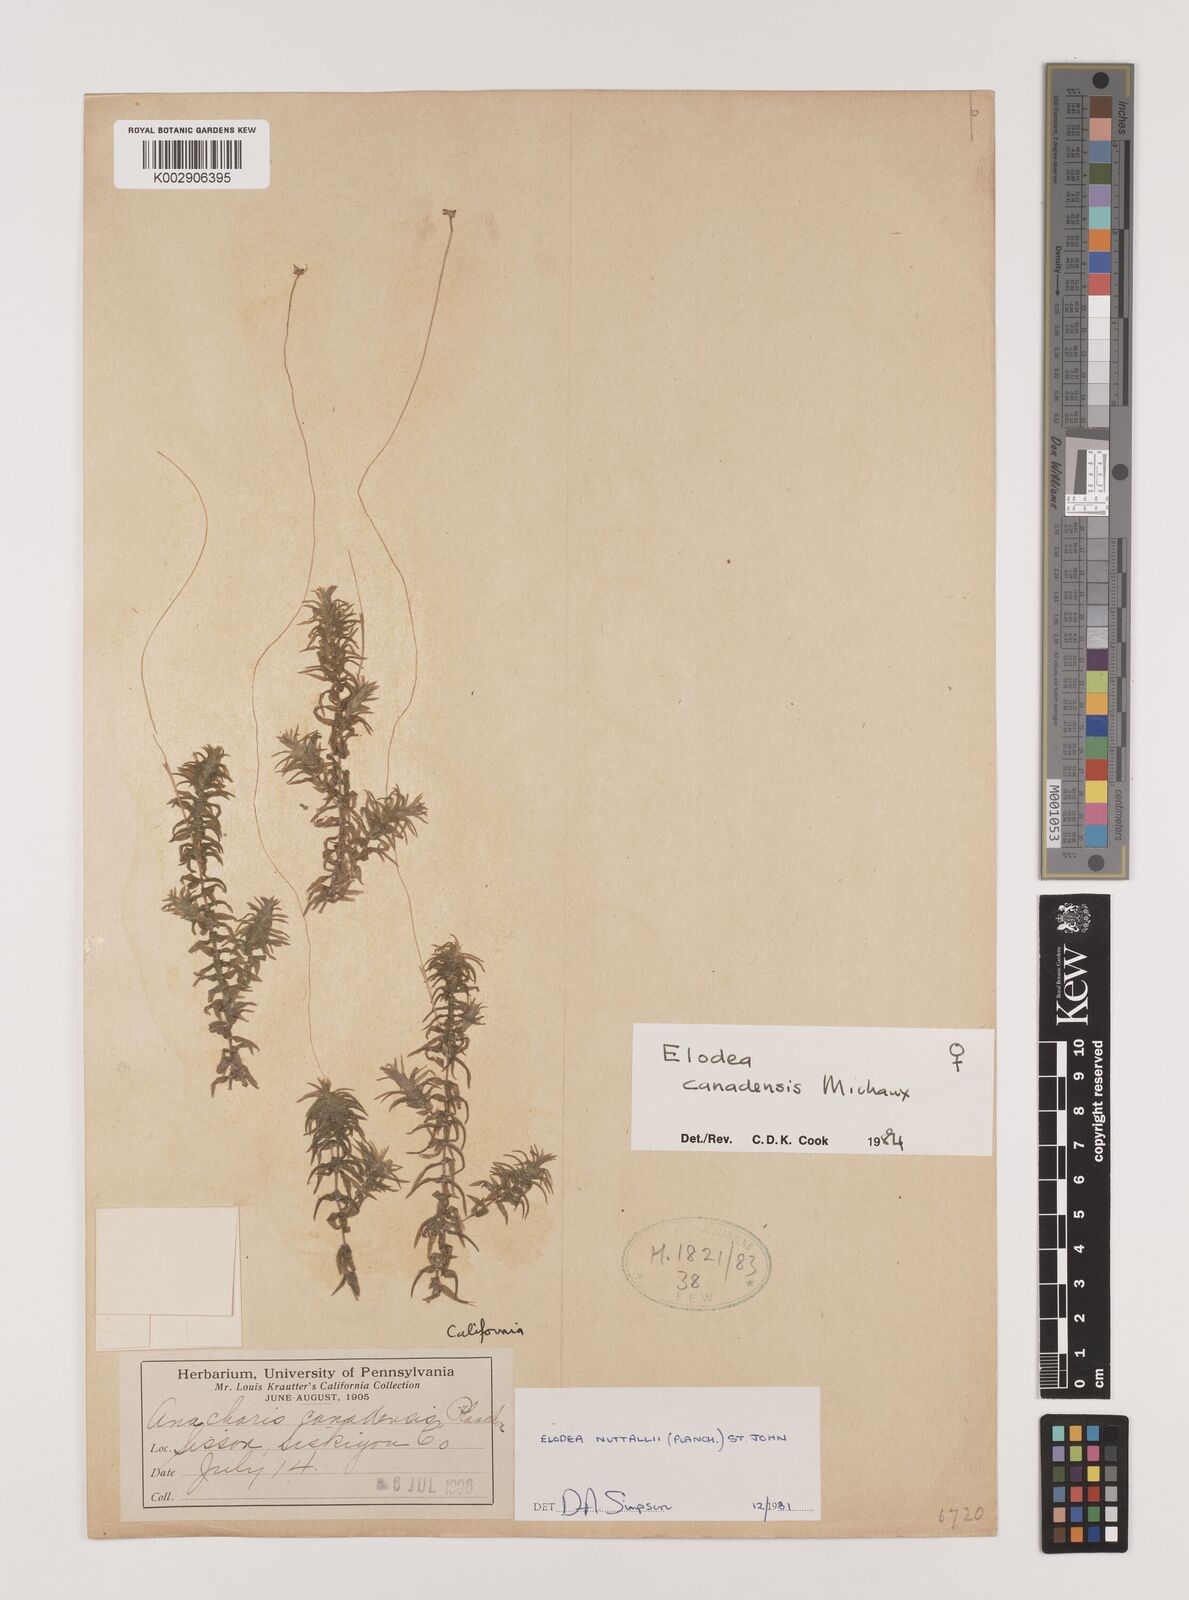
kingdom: Plantae
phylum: Tracheophyta
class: Liliopsida
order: Alismatales
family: Hydrocharitaceae
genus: Elodea
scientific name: Elodea canadensis
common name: Canadian waterweed
